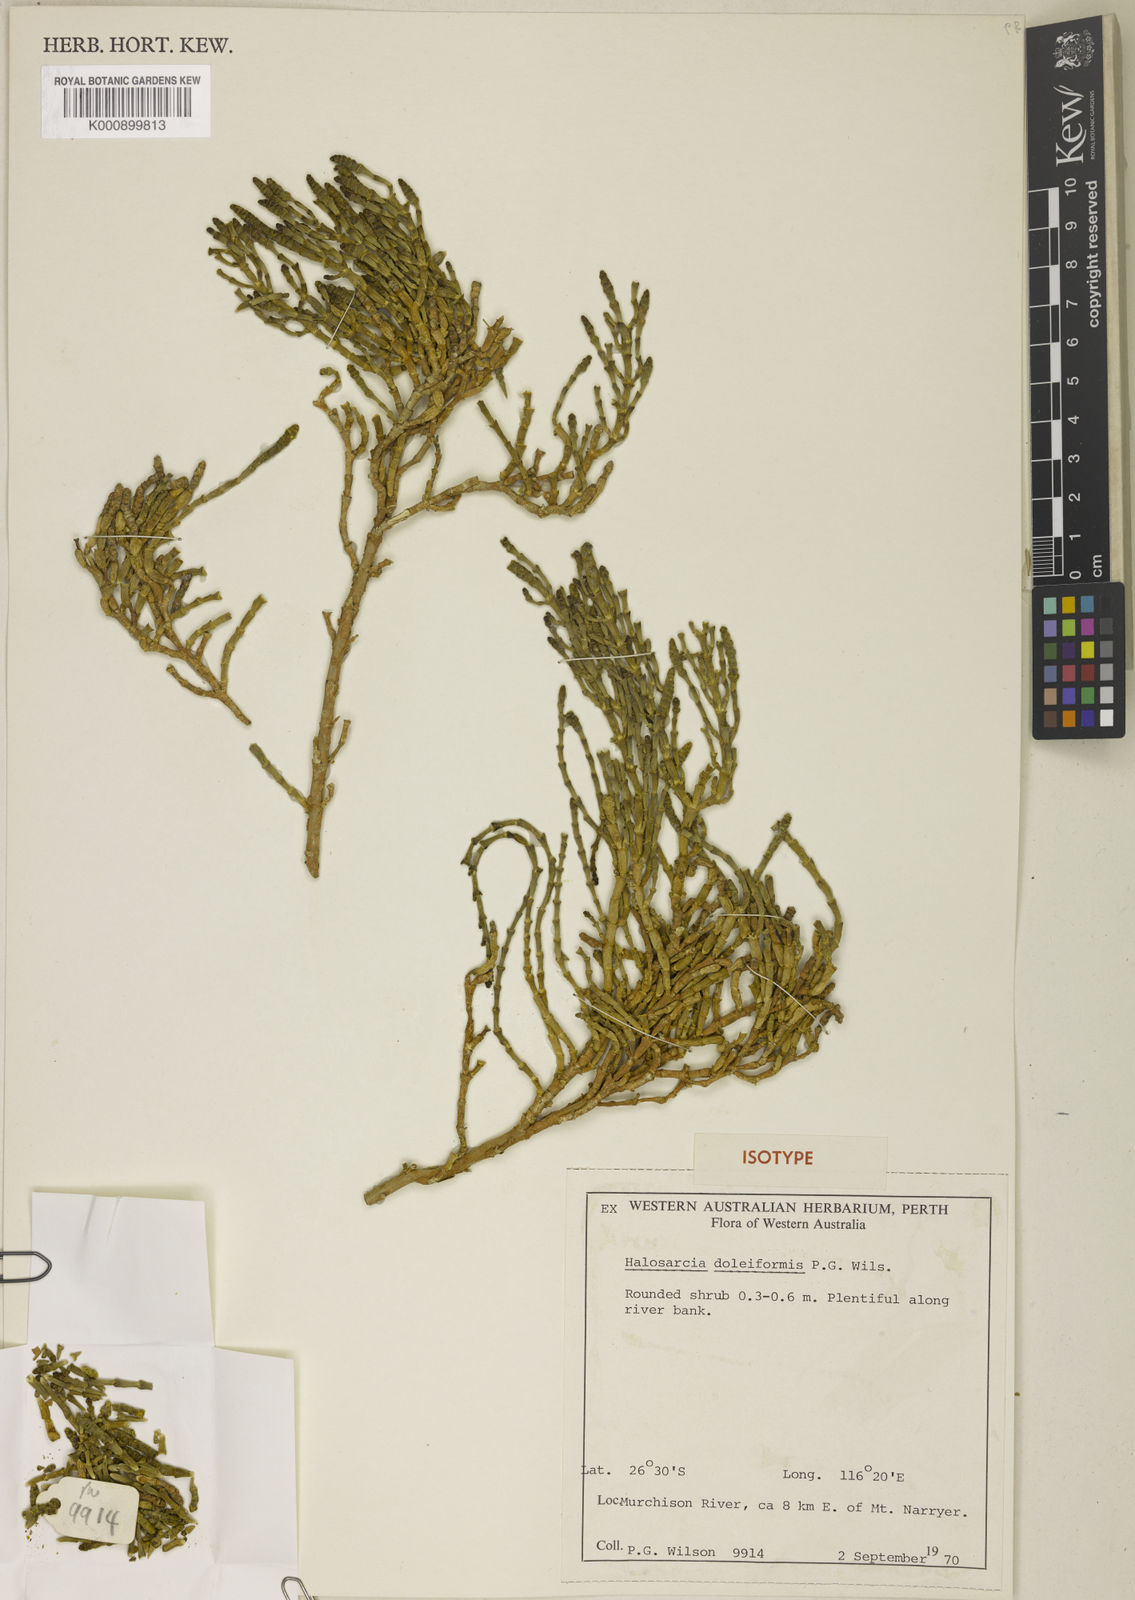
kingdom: Plantae
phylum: Tracheophyta
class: Magnoliopsida
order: Caryophyllales
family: Amaranthaceae
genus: Tecticornia
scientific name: Tecticornia doliiformis
